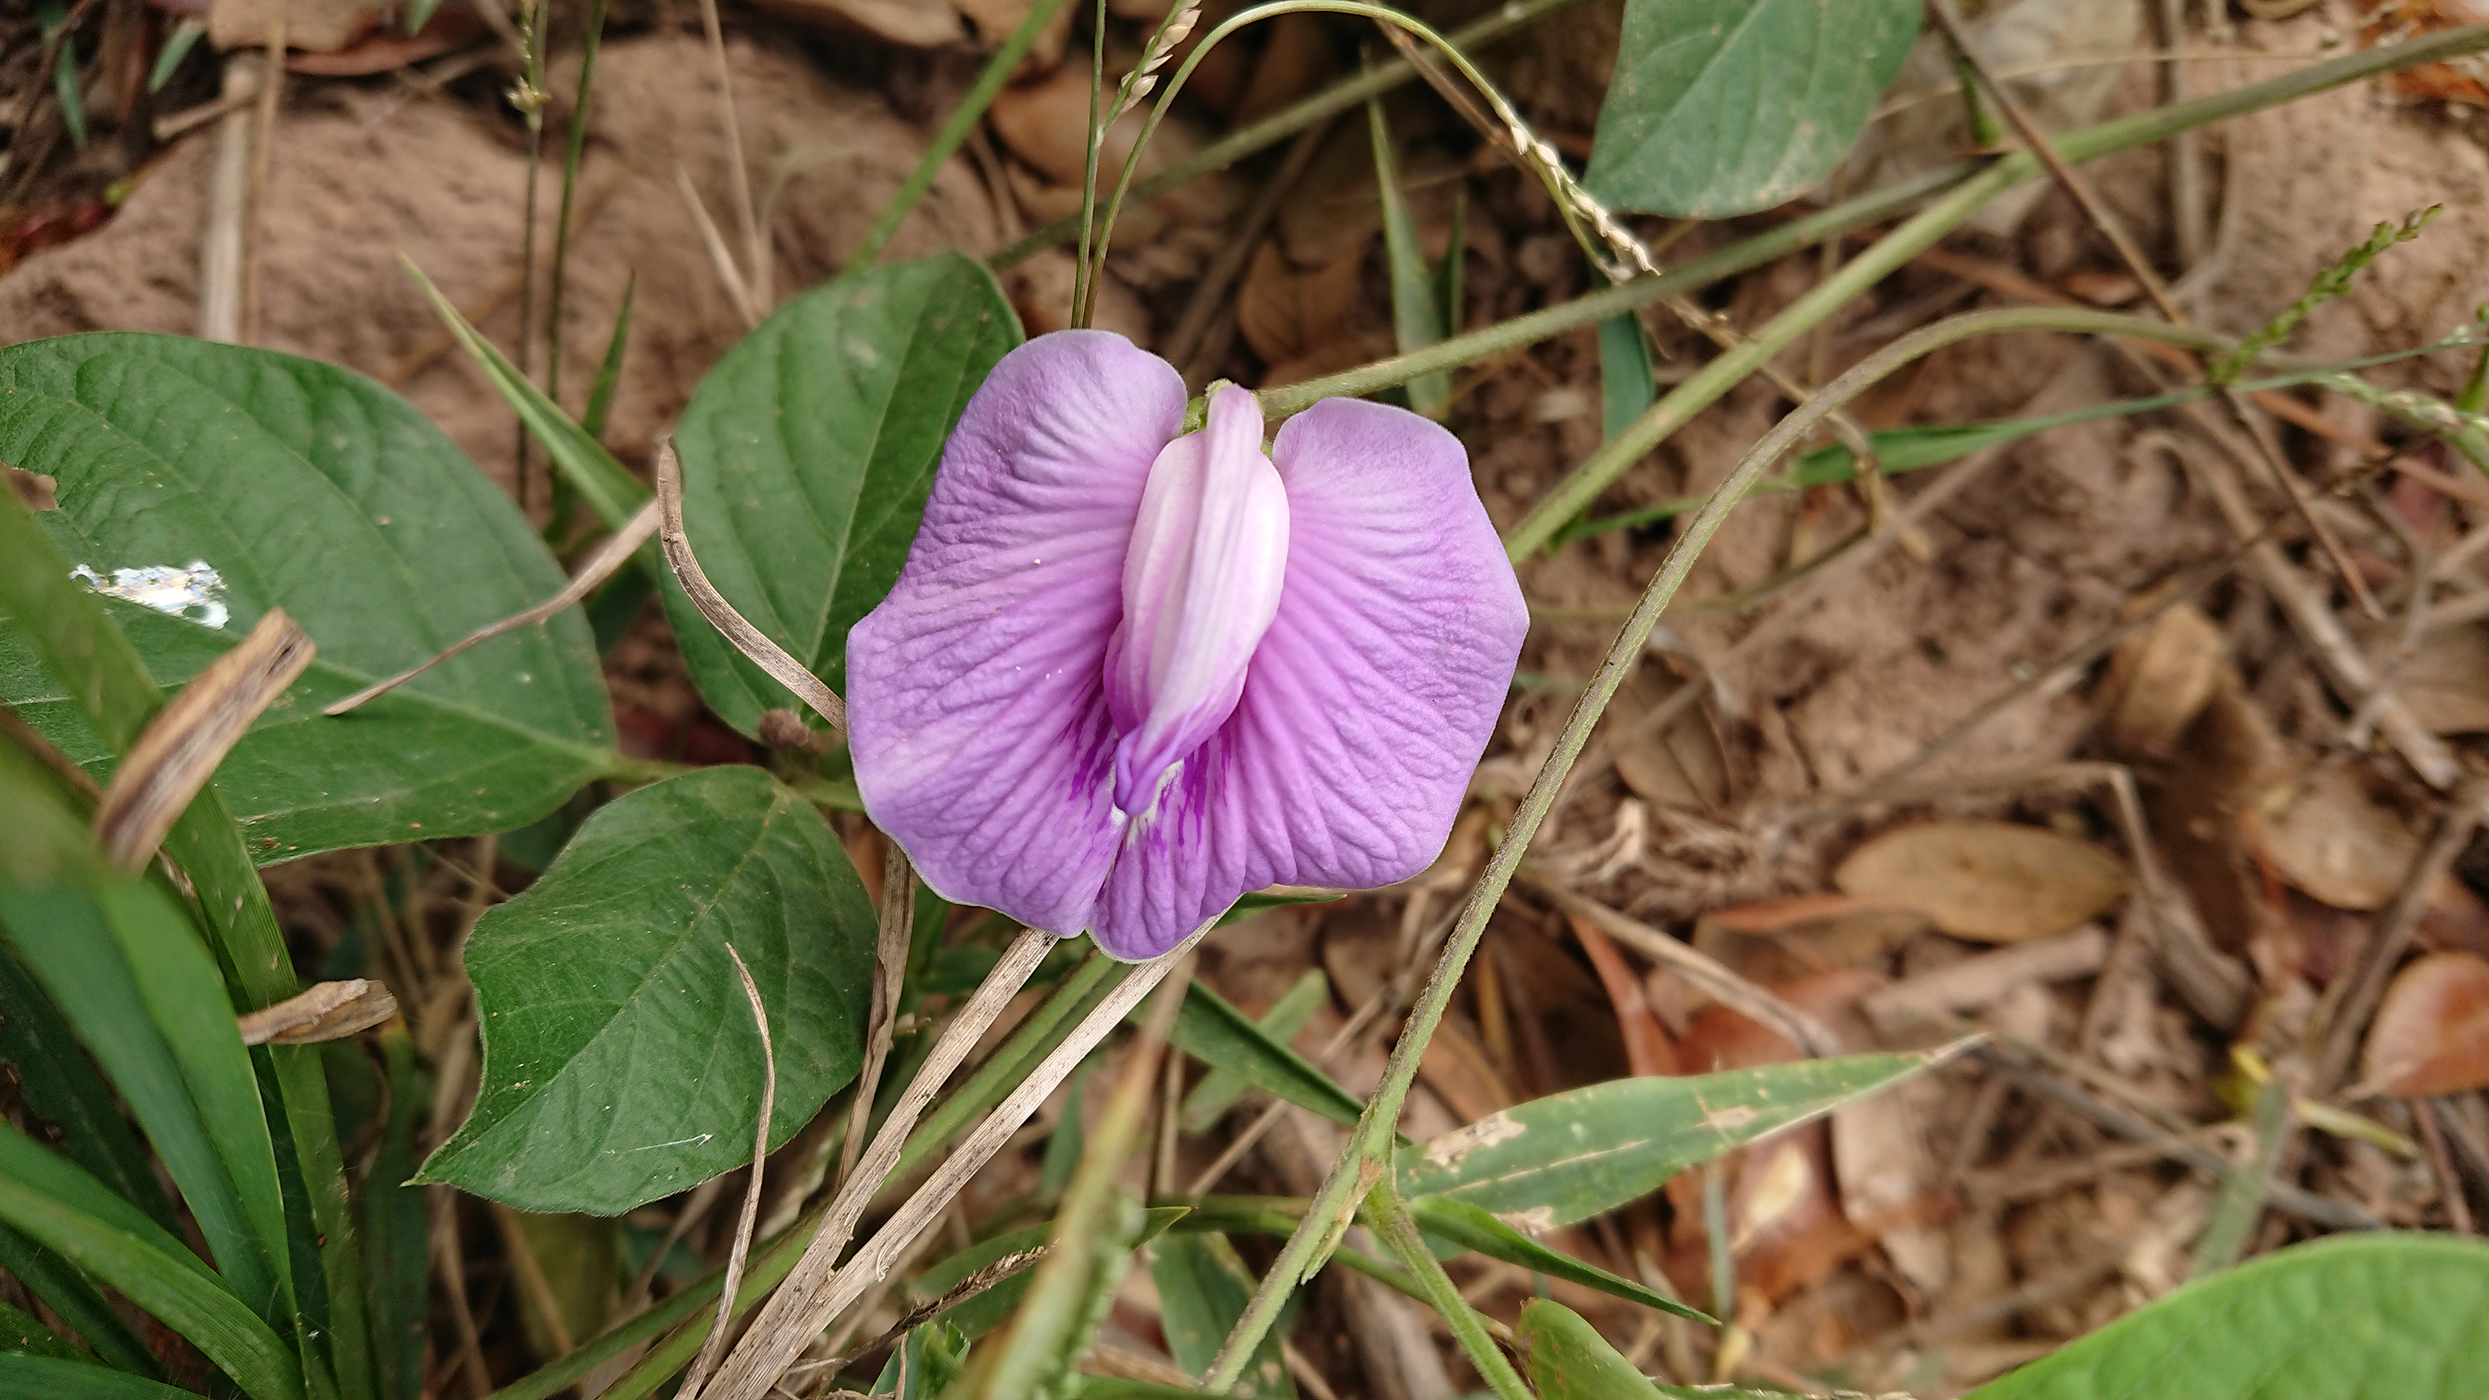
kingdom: Plantae
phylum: Tracheophyta
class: Magnoliopsida
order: Fabales
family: Fabaceae
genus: Centrosema
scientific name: Centrosema pubescens
